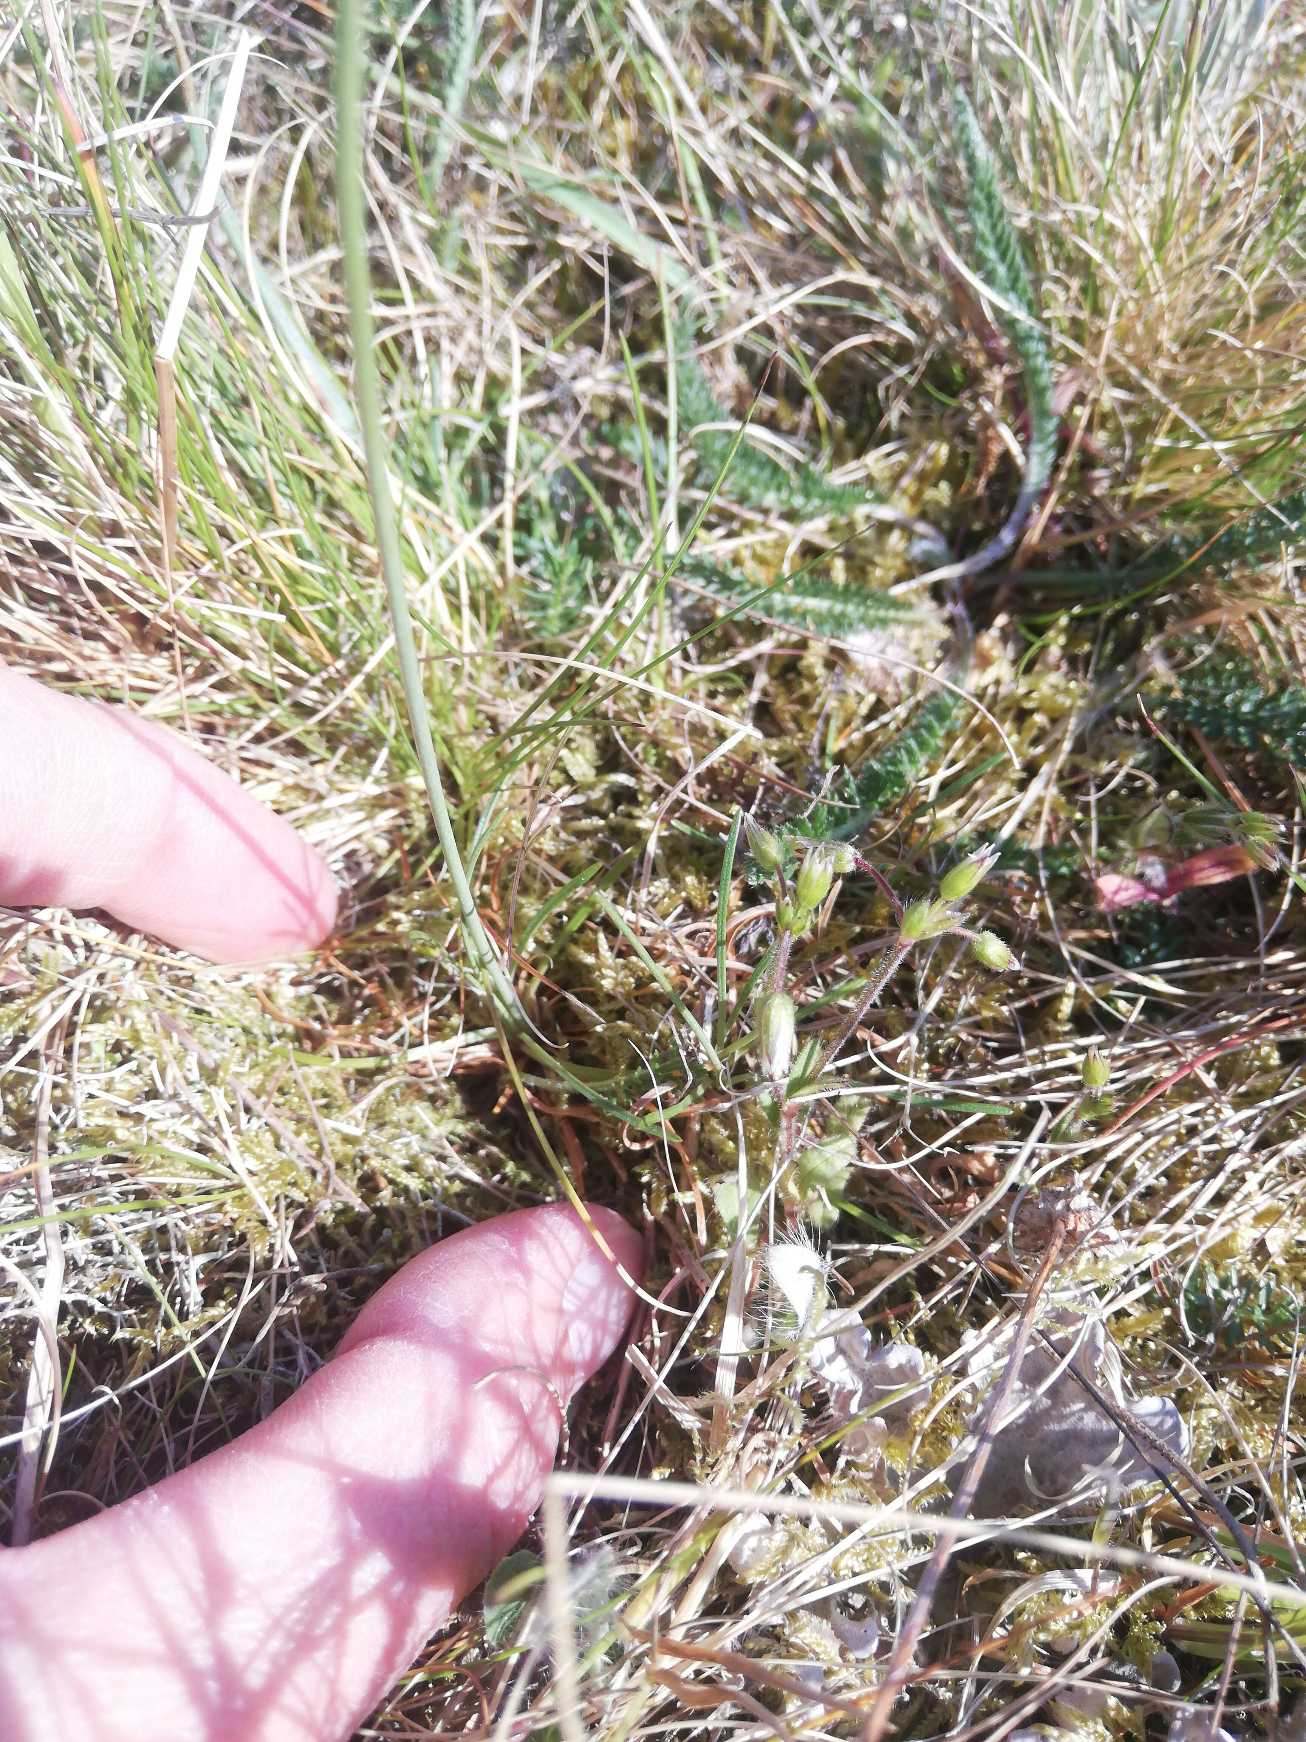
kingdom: Plantae
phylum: Tracheophyta
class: Magnoliopsida
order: Caryophyllales
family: Plumbaginaceae
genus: Armeria
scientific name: Armeria maritima
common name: Engelskgræs
